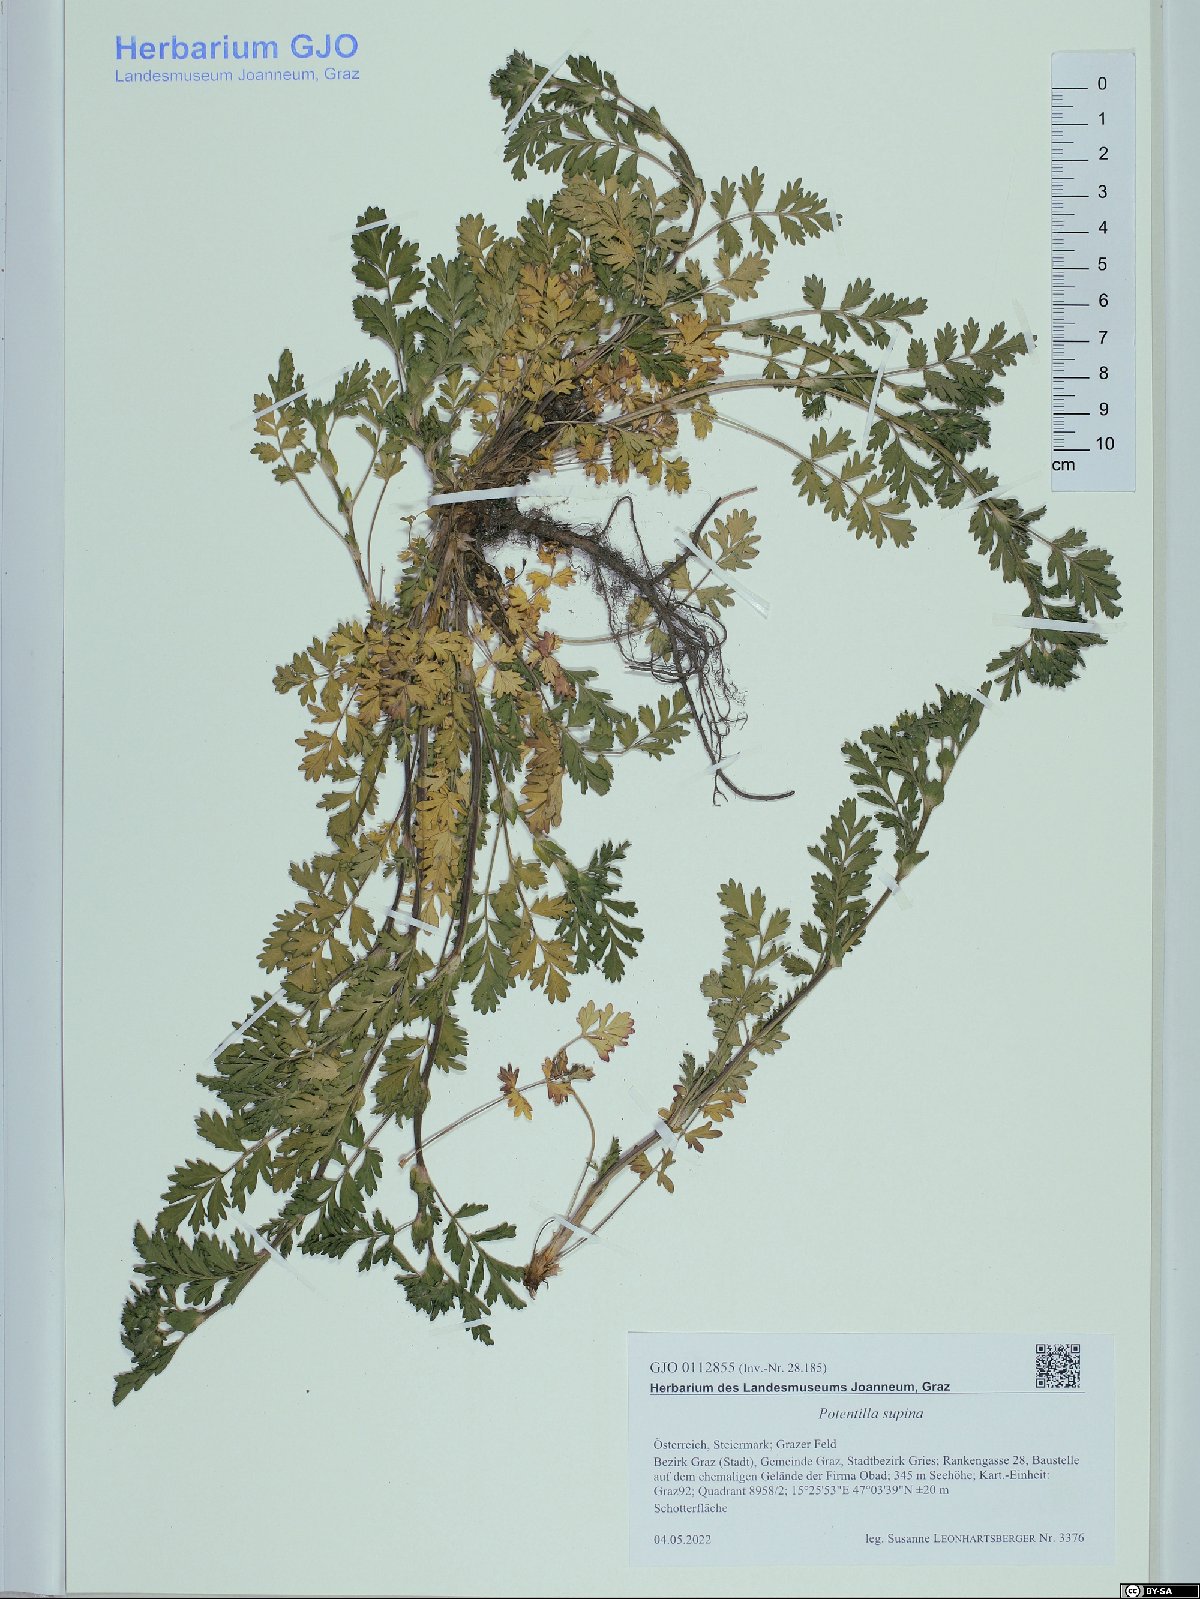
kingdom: Plantae
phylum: Tracheophyta
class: Magnoliopsida
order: Rosales
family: Rosaceae
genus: Potentilla
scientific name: Potentilla supina
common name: Prostrate cinquefoil
